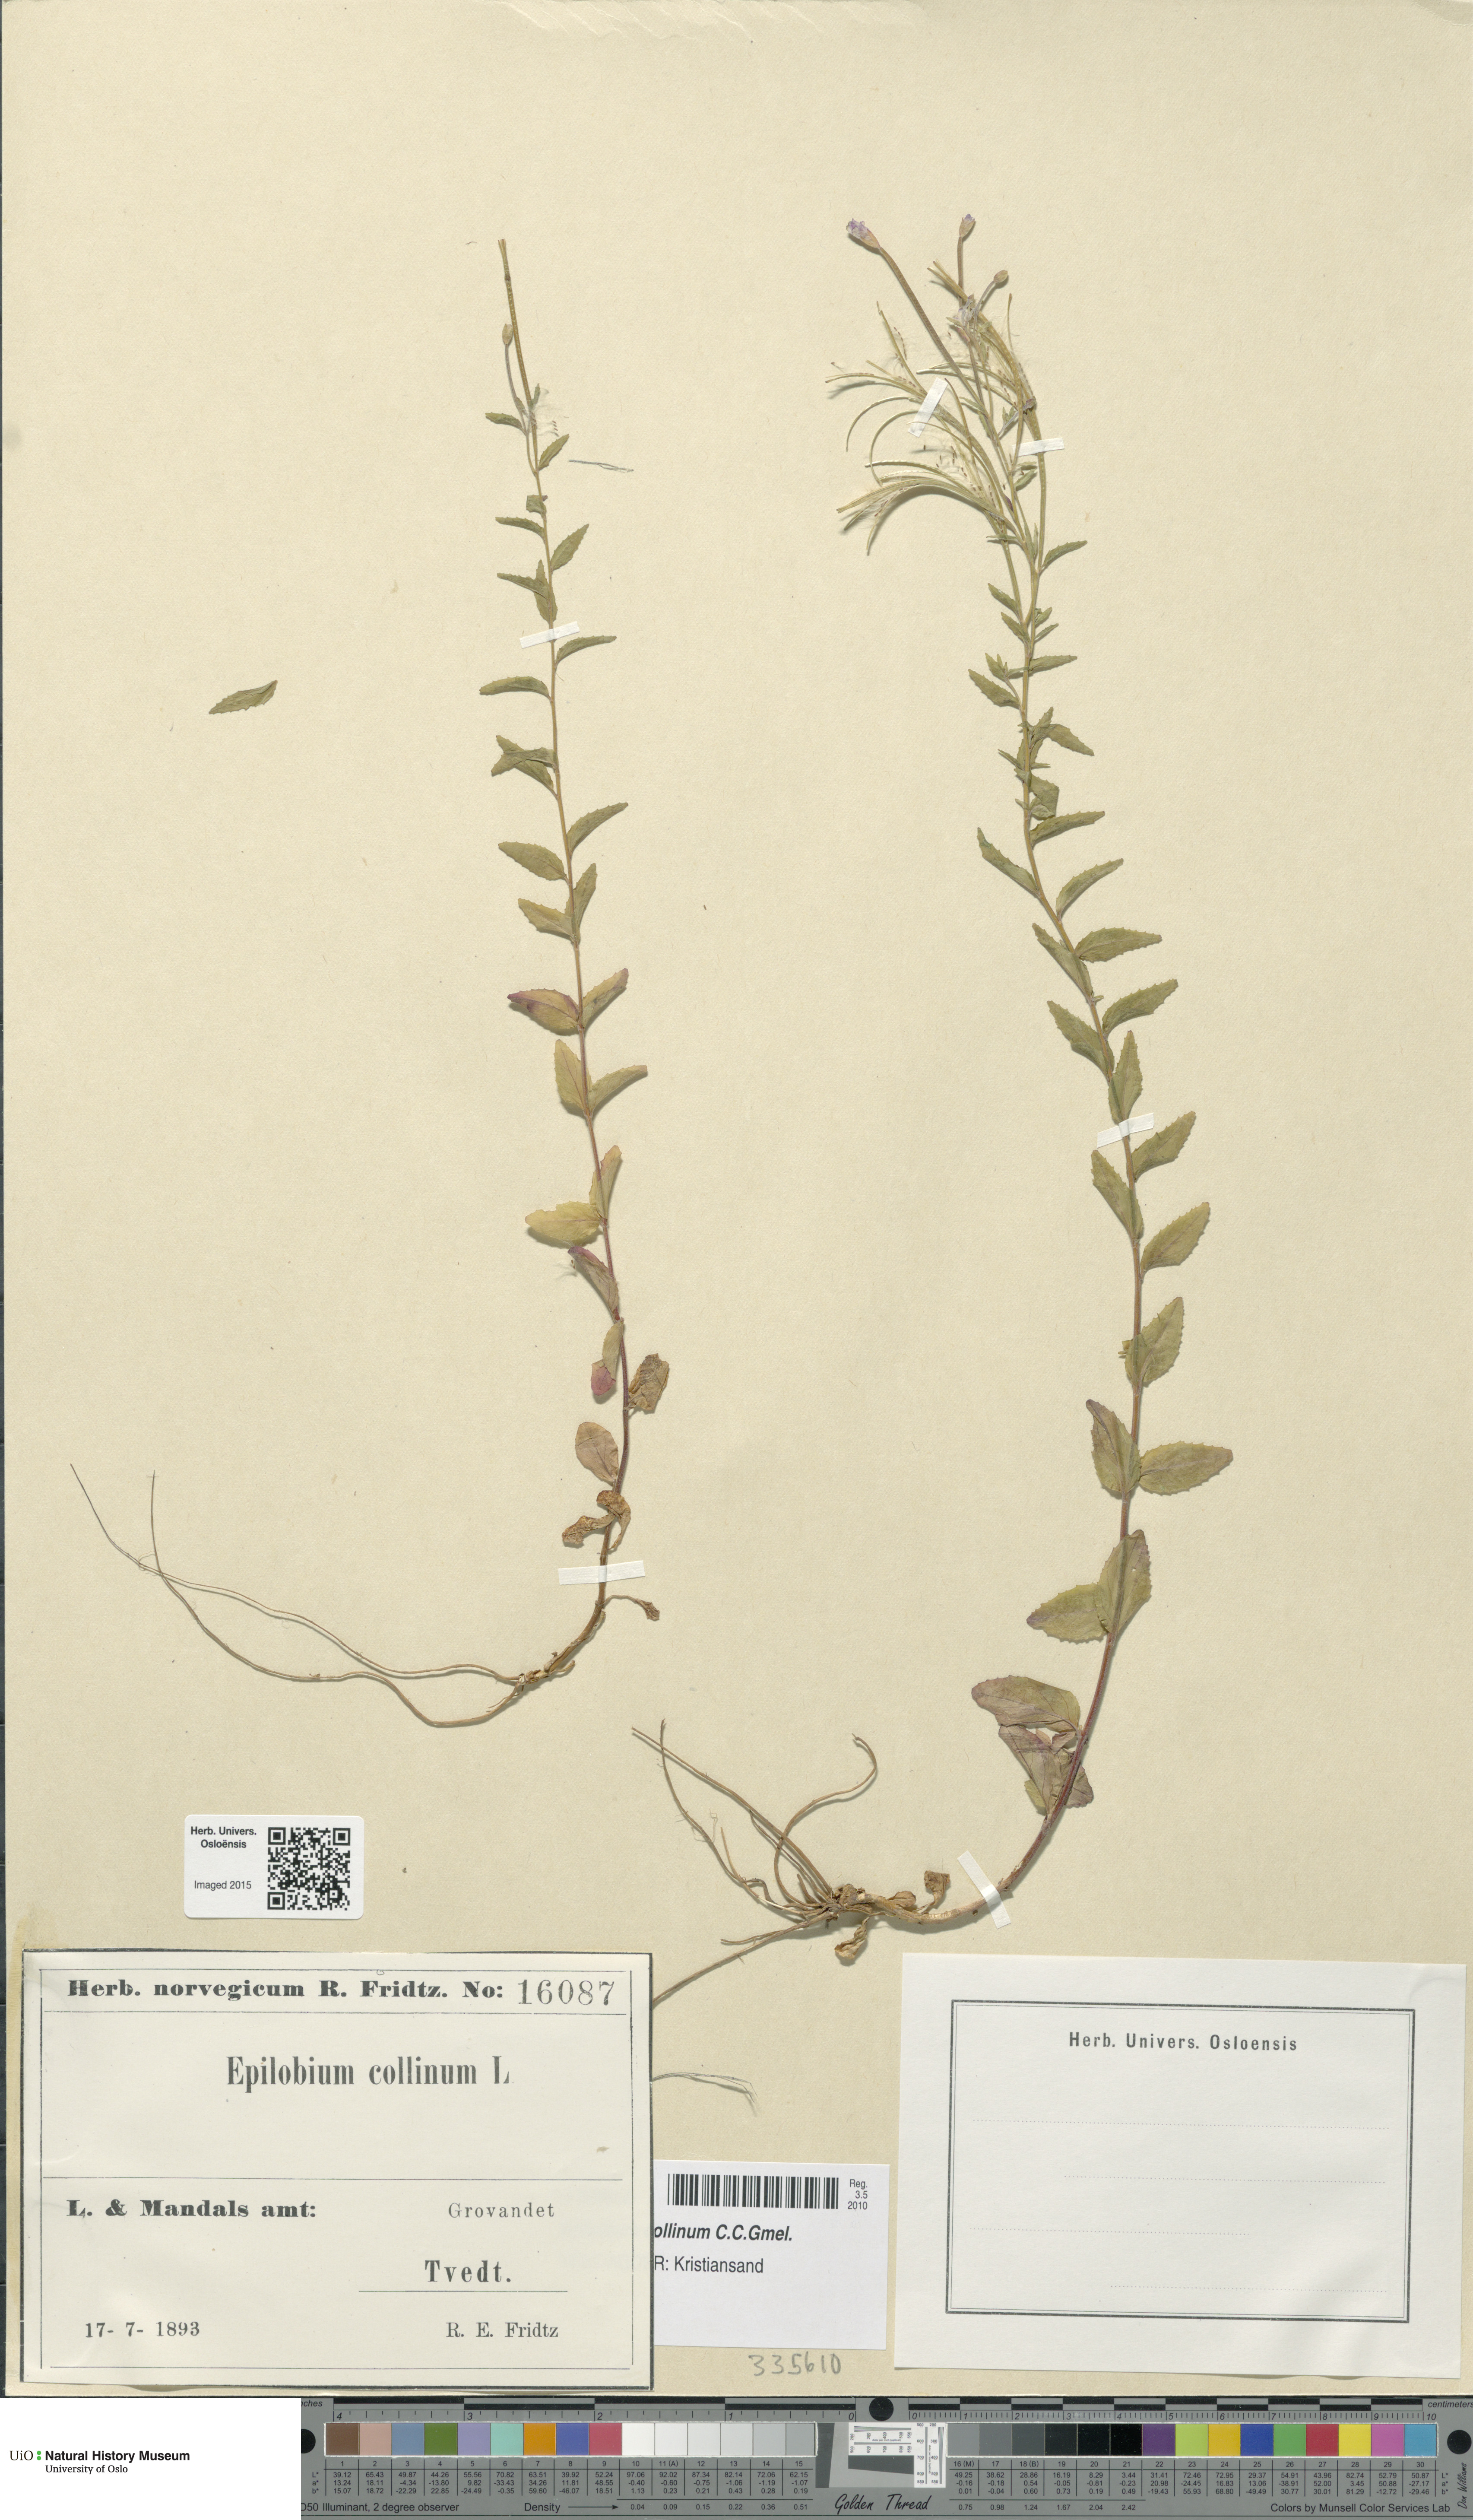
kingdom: Plantae
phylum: Tracheophyta
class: Magnoliopsida
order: Myrtales
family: Onagraceae
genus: Epilobium
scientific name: Epilobium collinum
